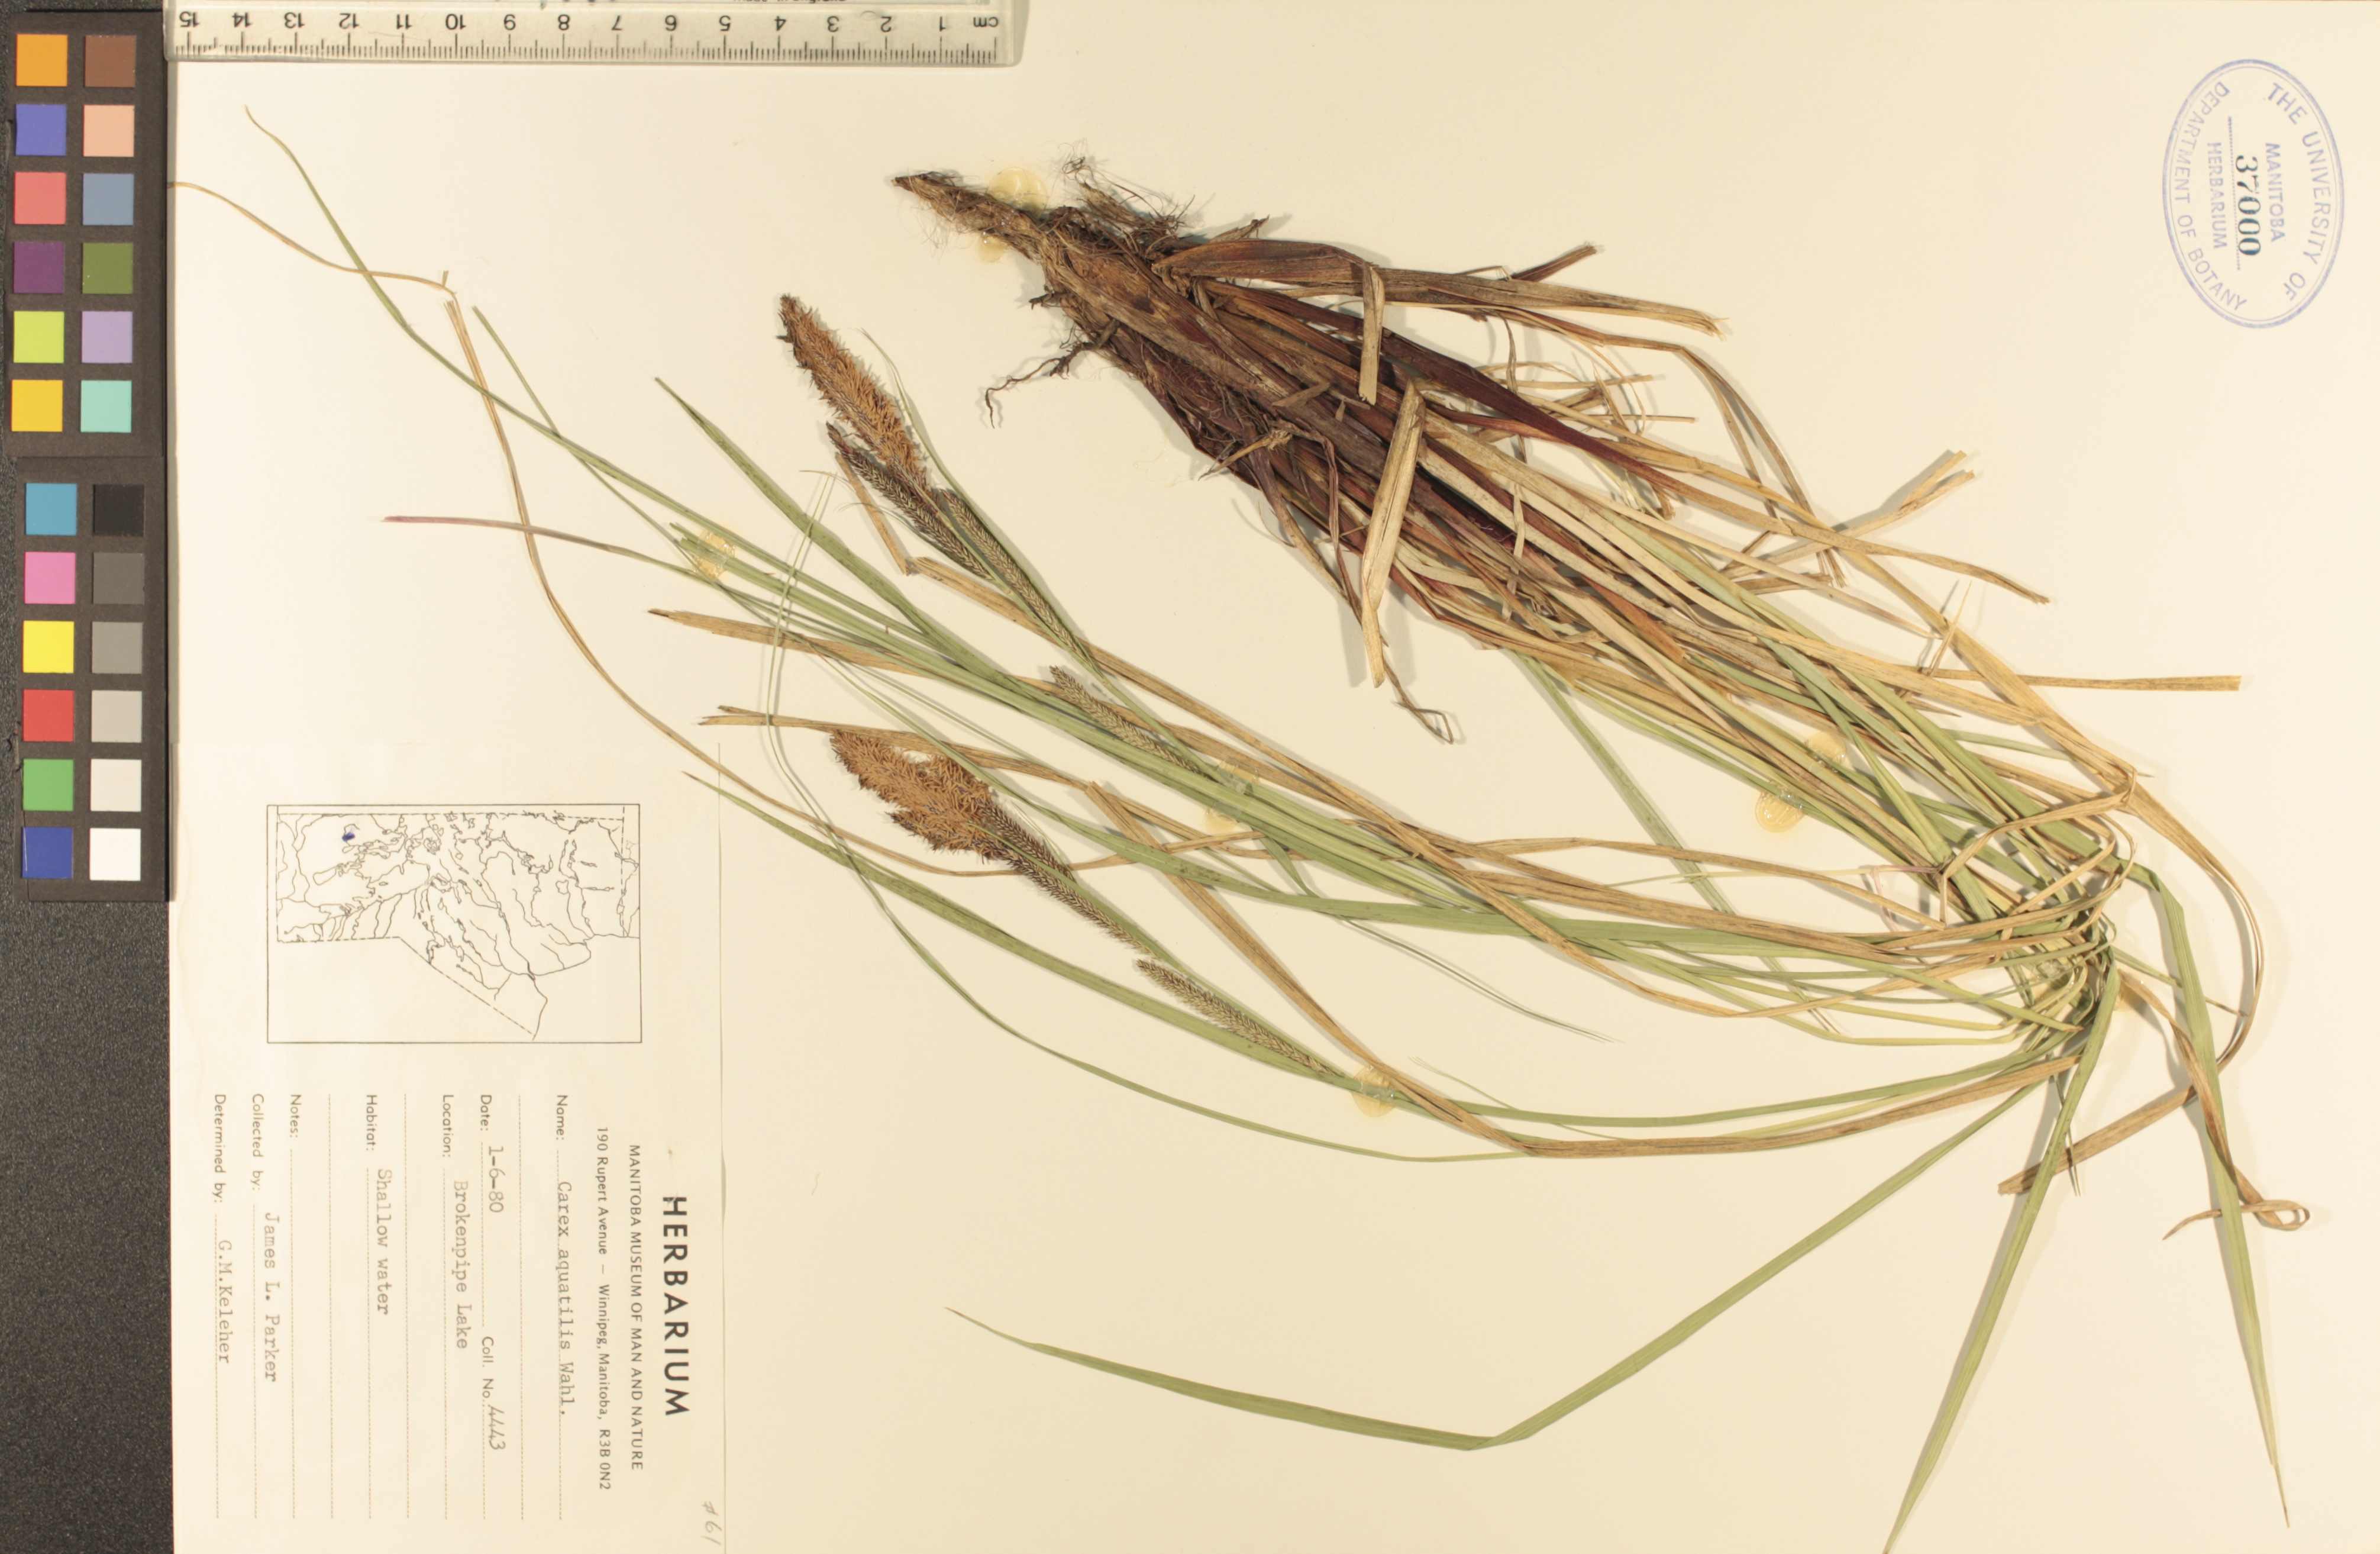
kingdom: Plantae
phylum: Tracheophyta
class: Liliopsida
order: Poales
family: Cyperaceae
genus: Carex
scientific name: Carex aquatilis
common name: Water sedge
